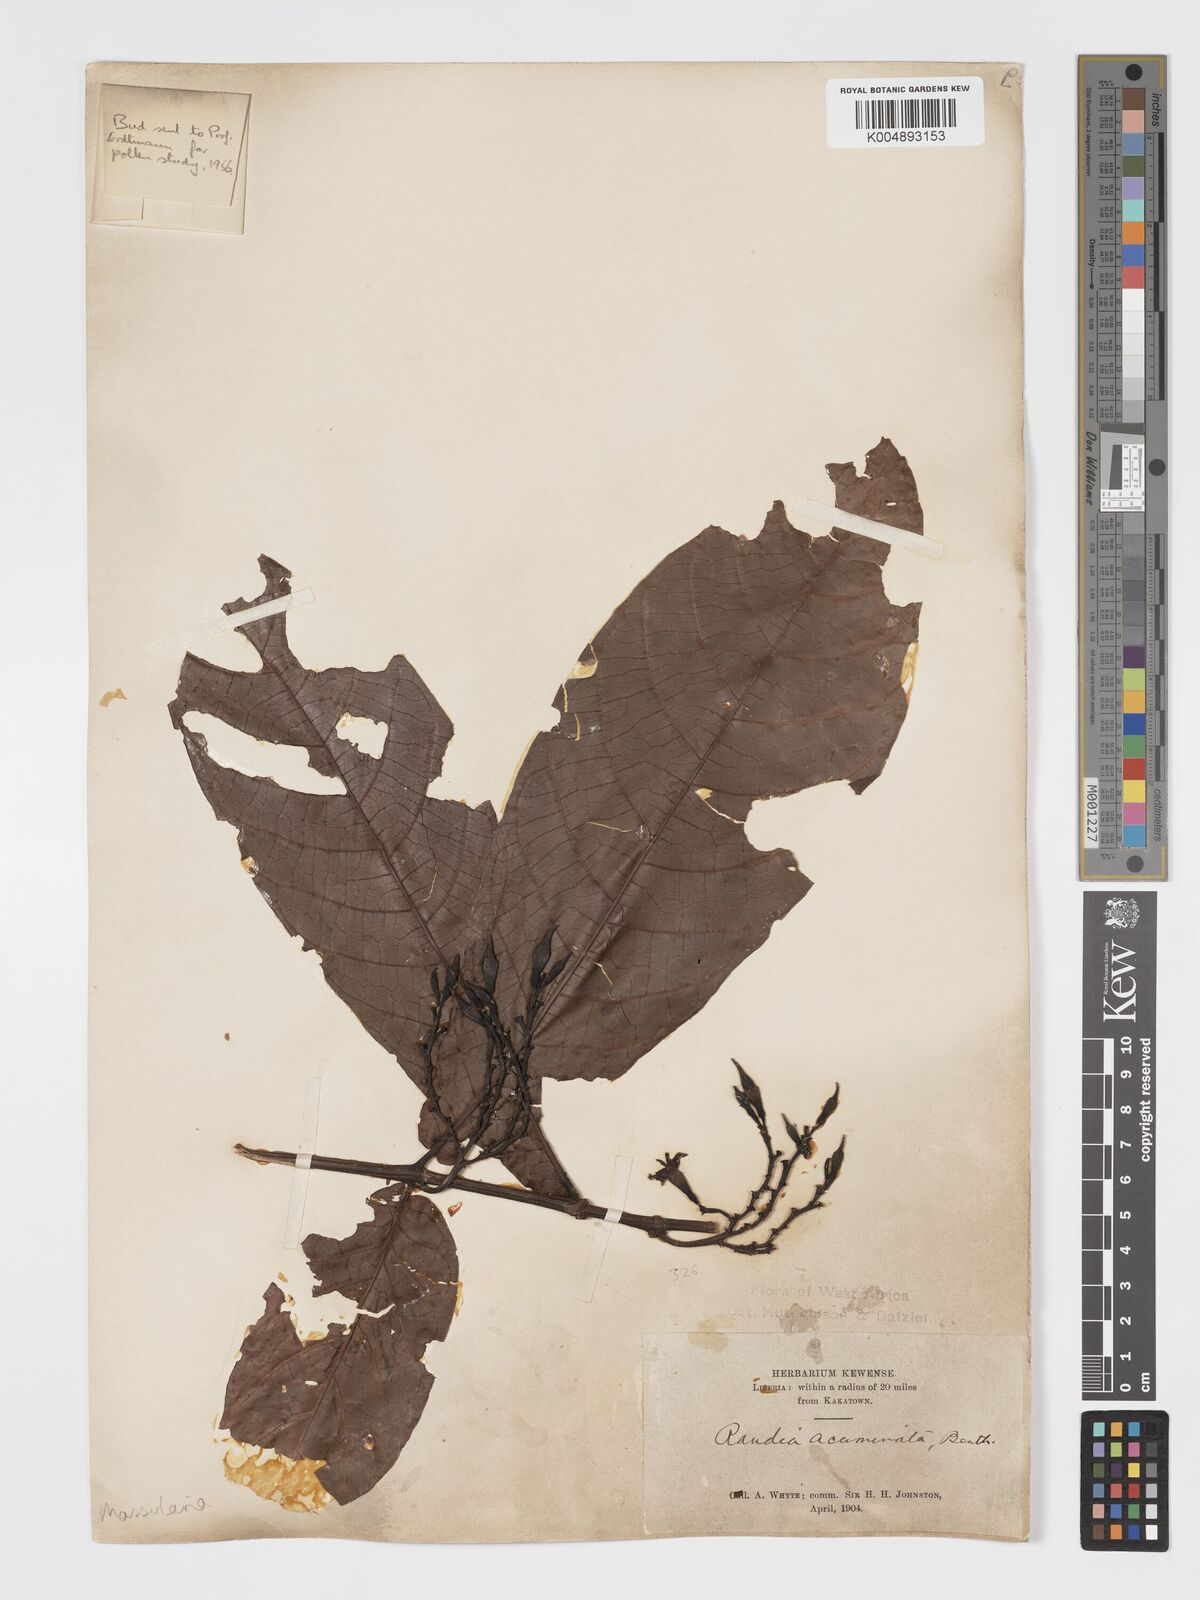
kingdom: Plantae
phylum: Tracheophyta
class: Magnoliopsida
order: Gentianales
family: Rubiaceae
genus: Massularia
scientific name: Massularia acuminata
